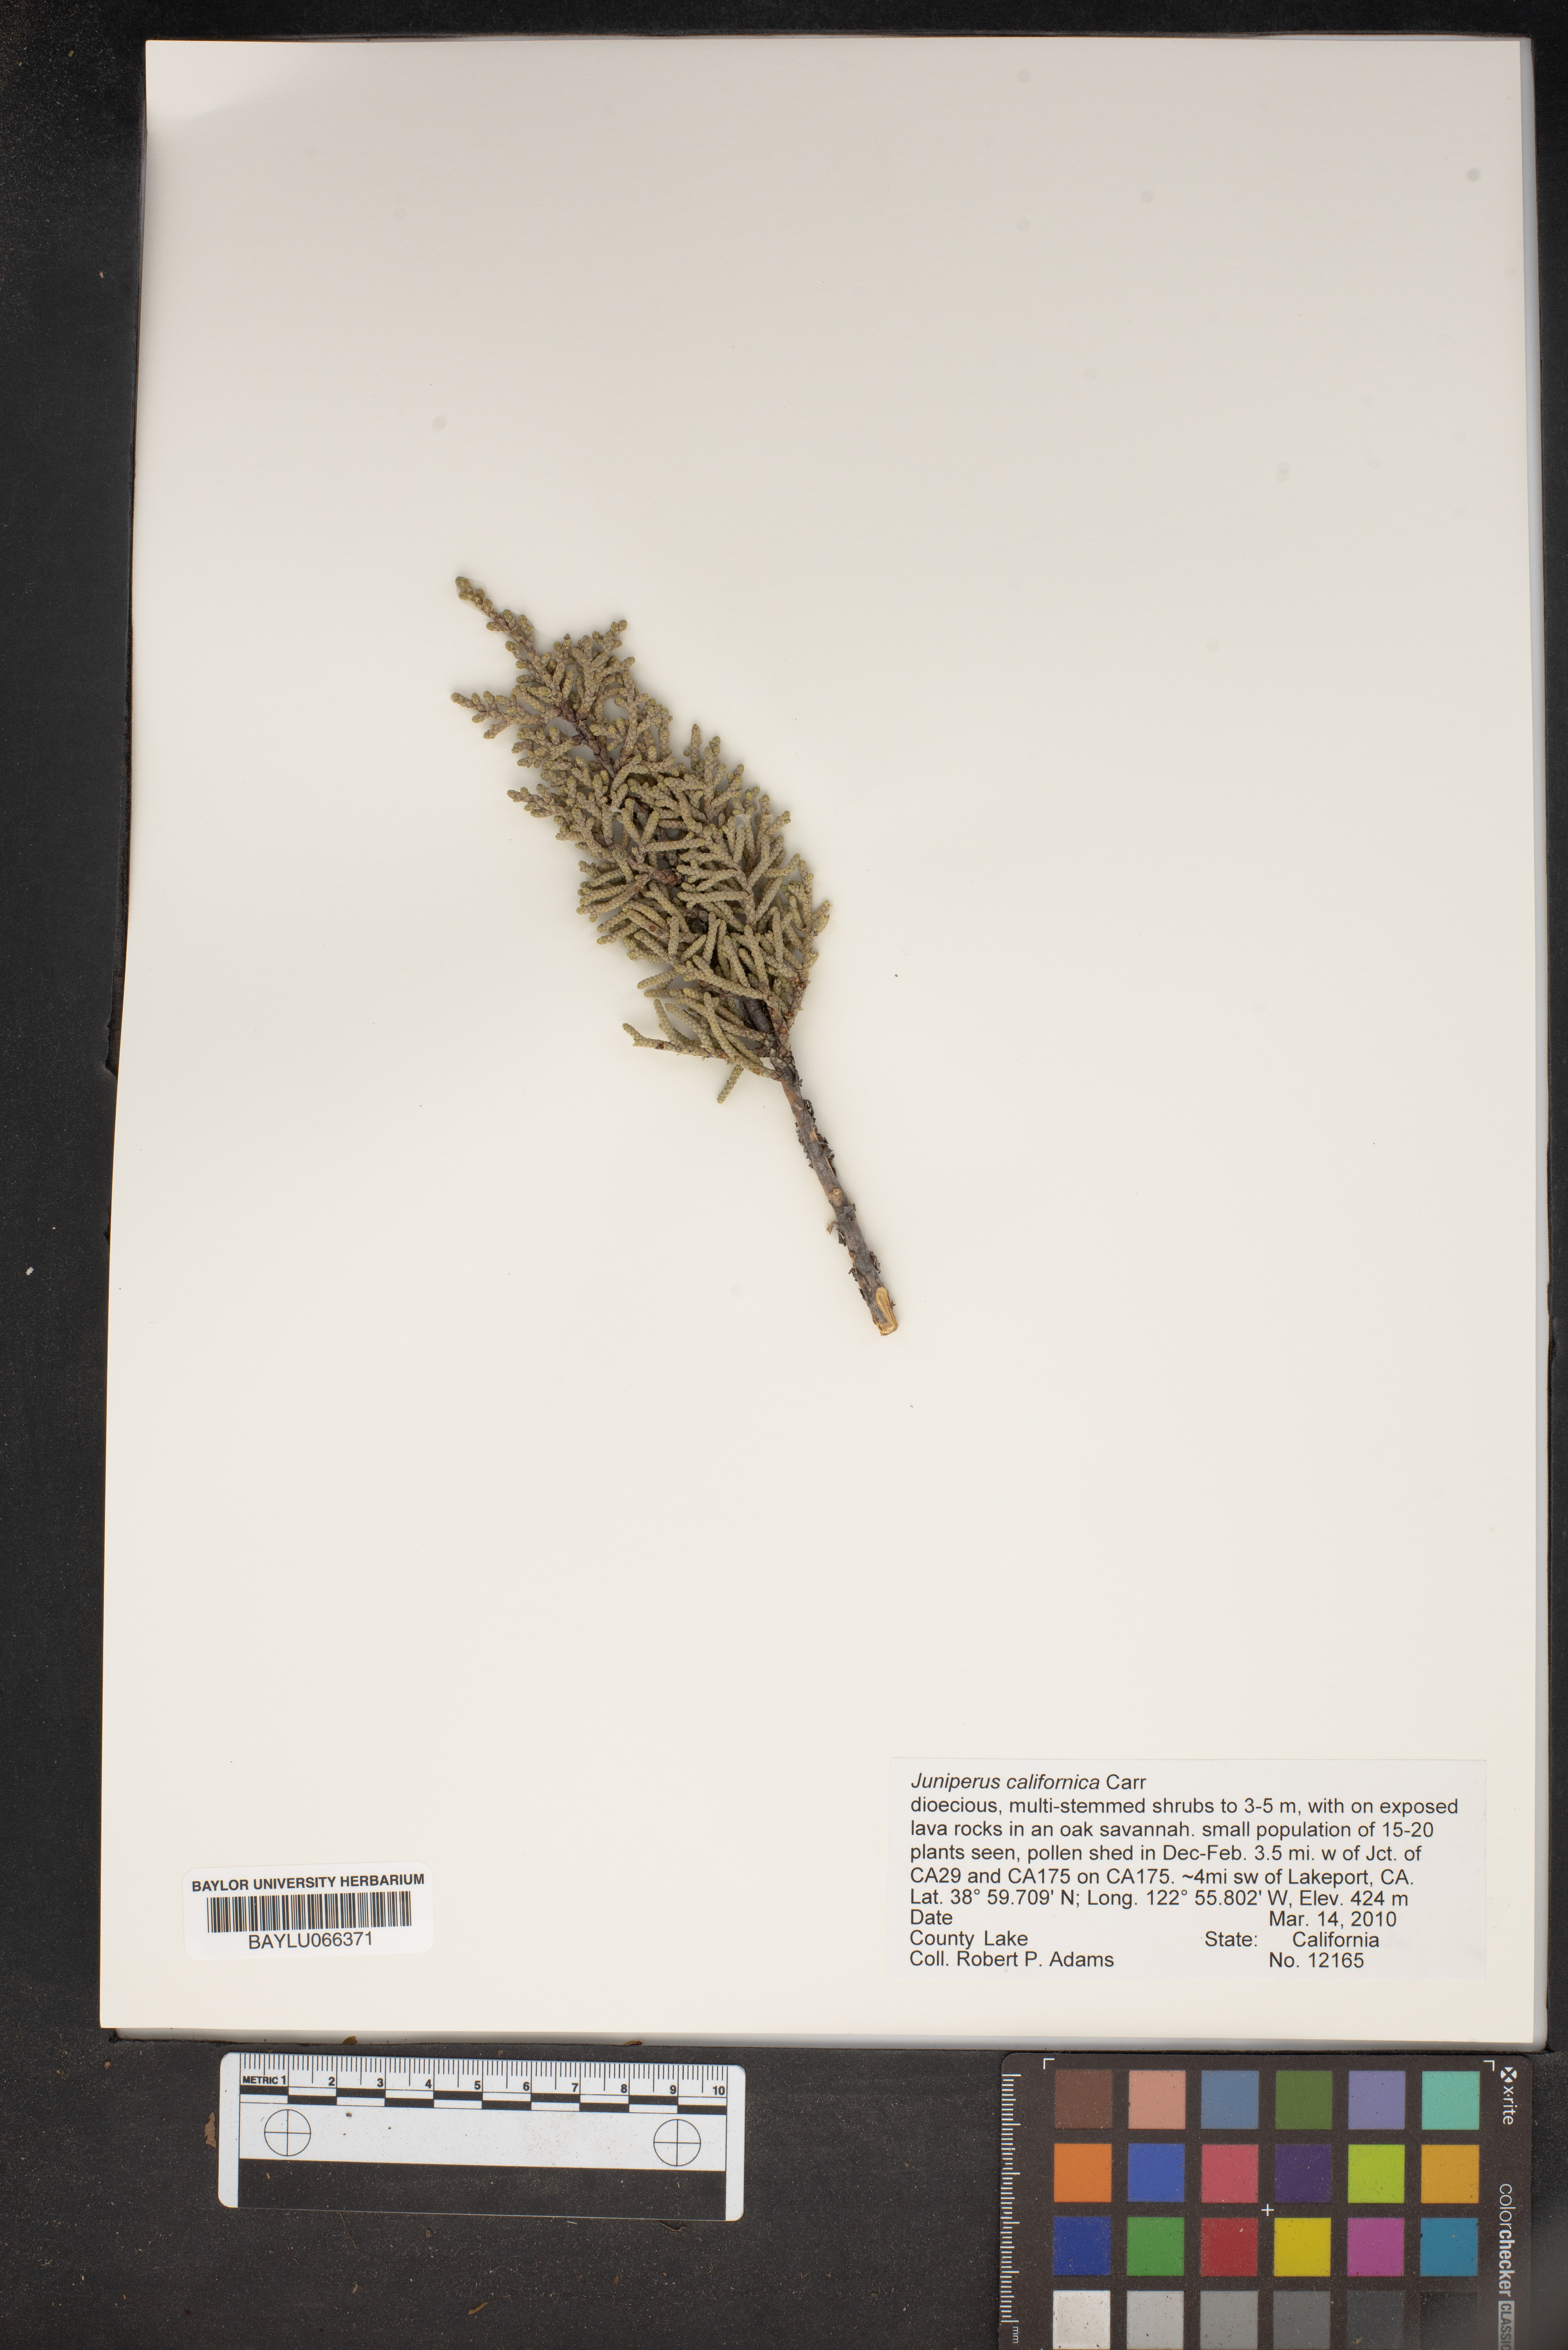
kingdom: Plantae
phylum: Tracheophyta
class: Pinopsida
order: Pinales
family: Cupressaceae
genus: Juniperus
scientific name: Juniperus californica
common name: California juniper
